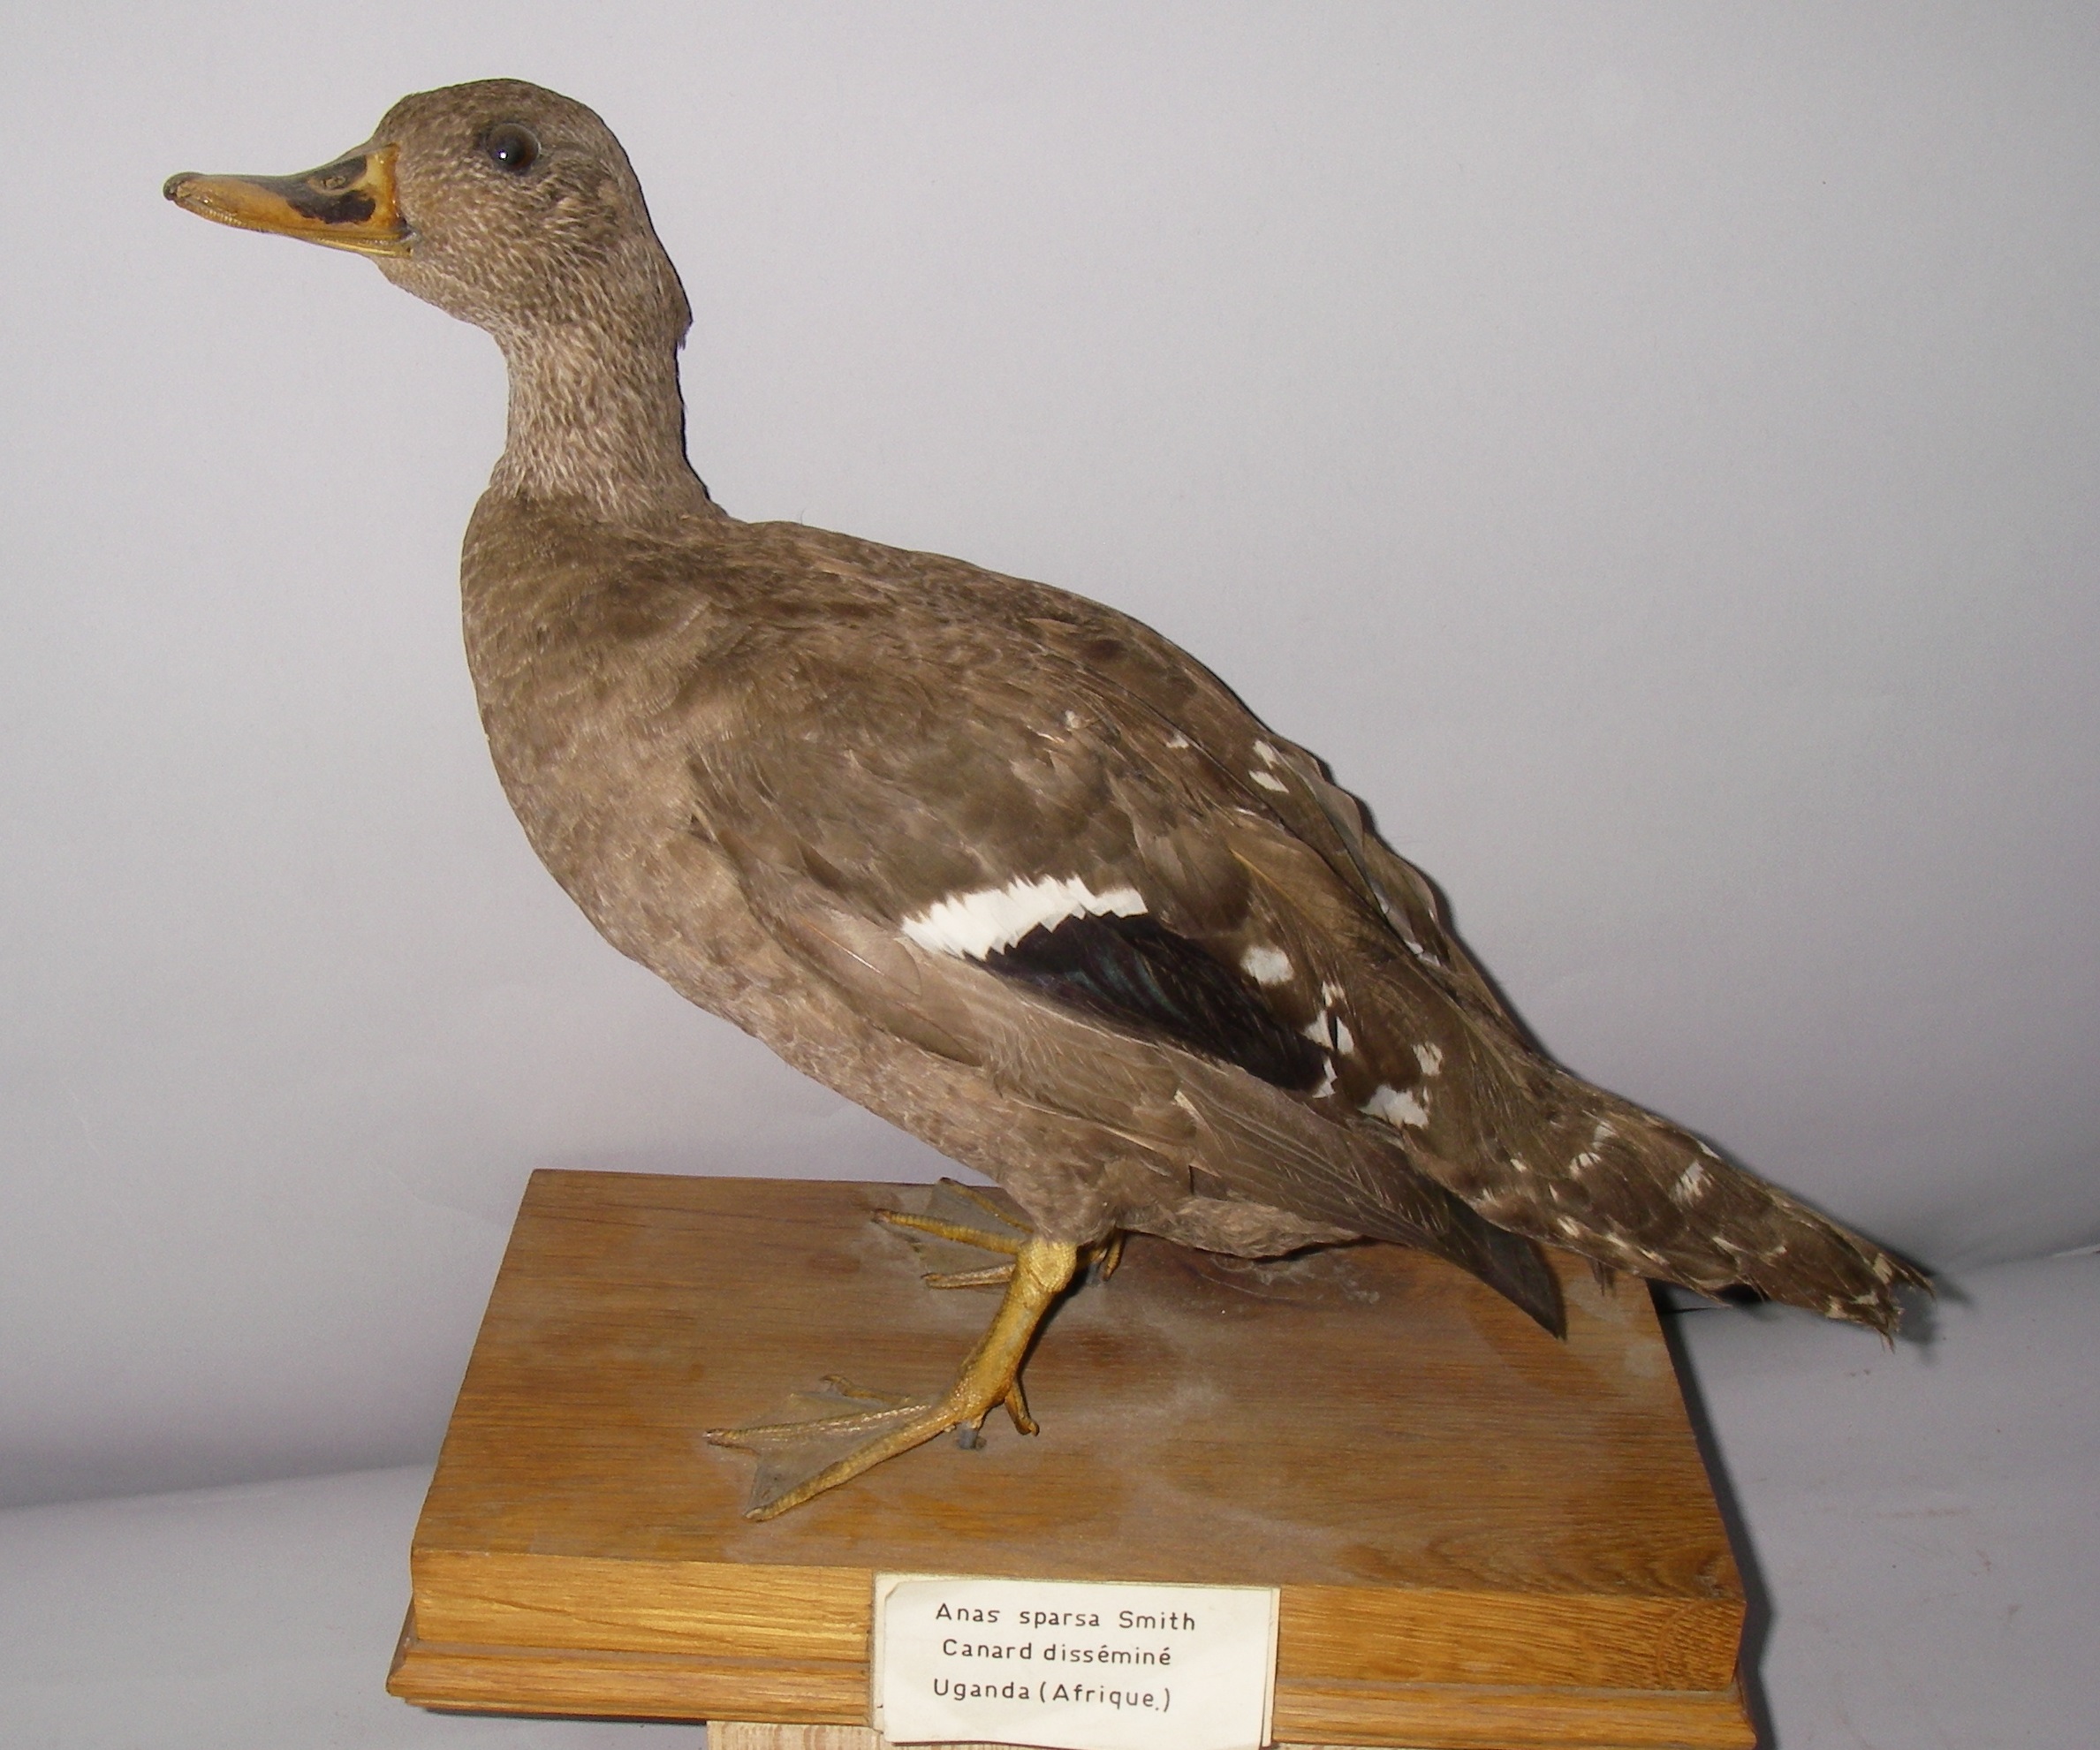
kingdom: Animalia
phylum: Chordata
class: Aves
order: Anseriformes
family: Anatidae
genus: Anas
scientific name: Anas sparsa
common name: African black duck
